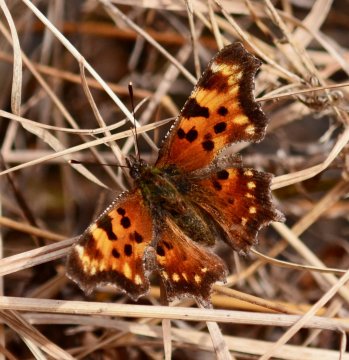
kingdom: Animalia
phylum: Arthropoda
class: Insecta
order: Lepidoptera
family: Nymphalidae
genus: Polygonia
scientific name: Polygonia faunus
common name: Green Comma
